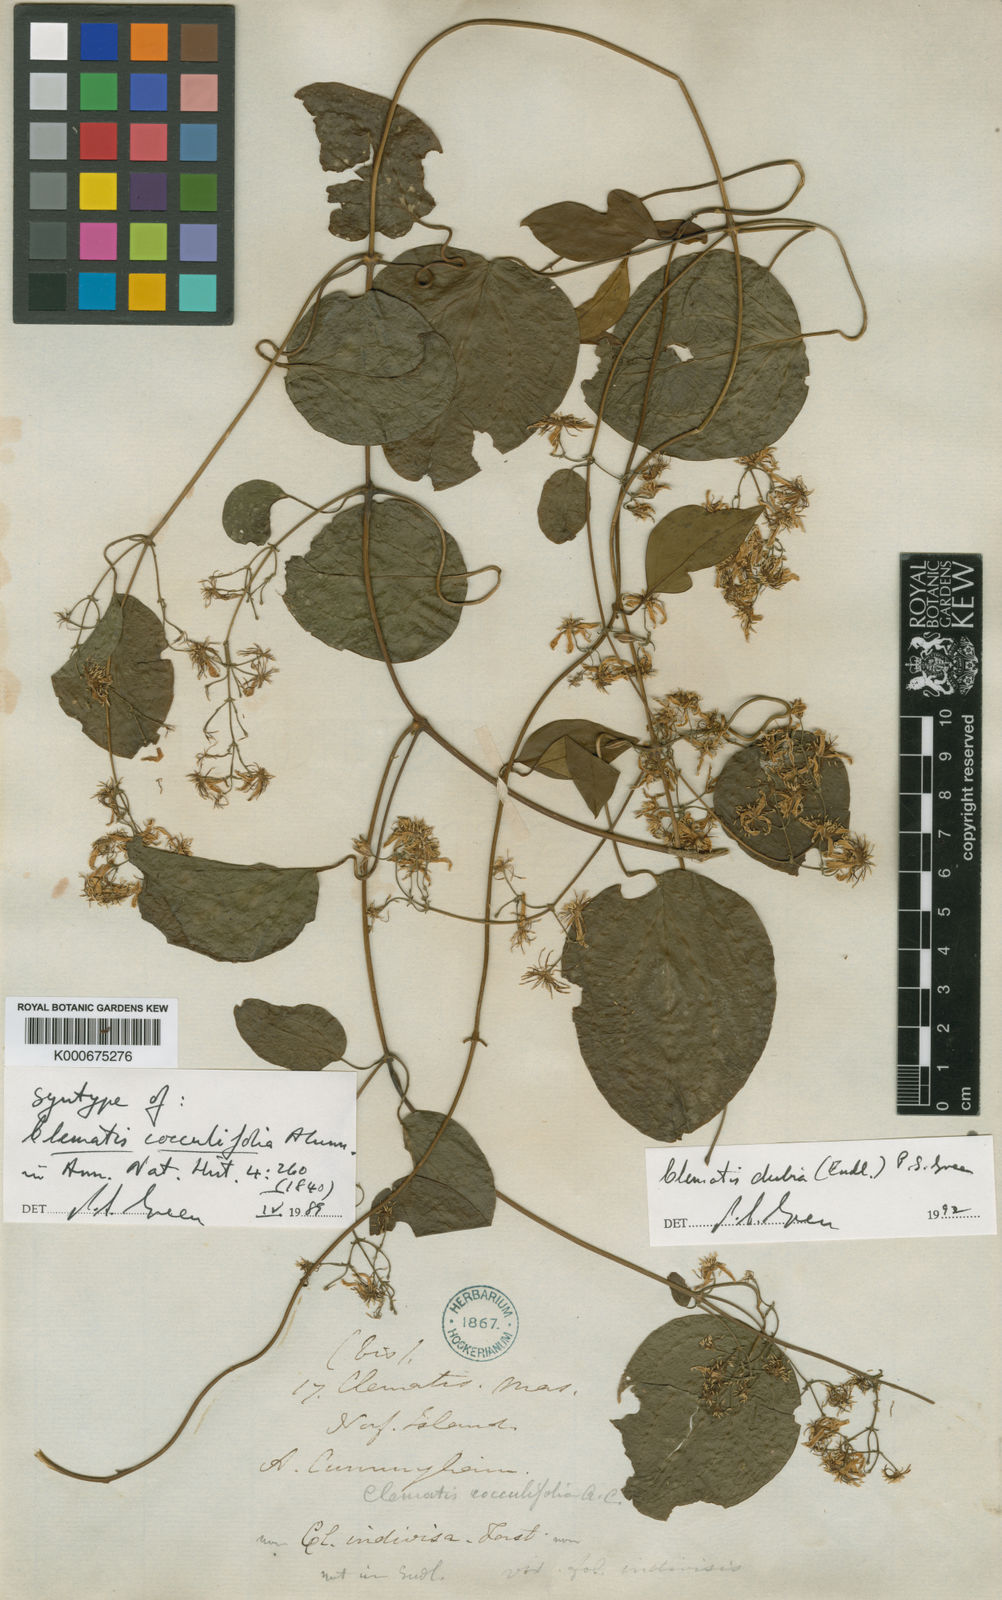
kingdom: Plantae
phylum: Tracheophyta
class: Magnoliopsida
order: Ranunculales
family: Ranunculaceae
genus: Clematis
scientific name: Clematis dubia
